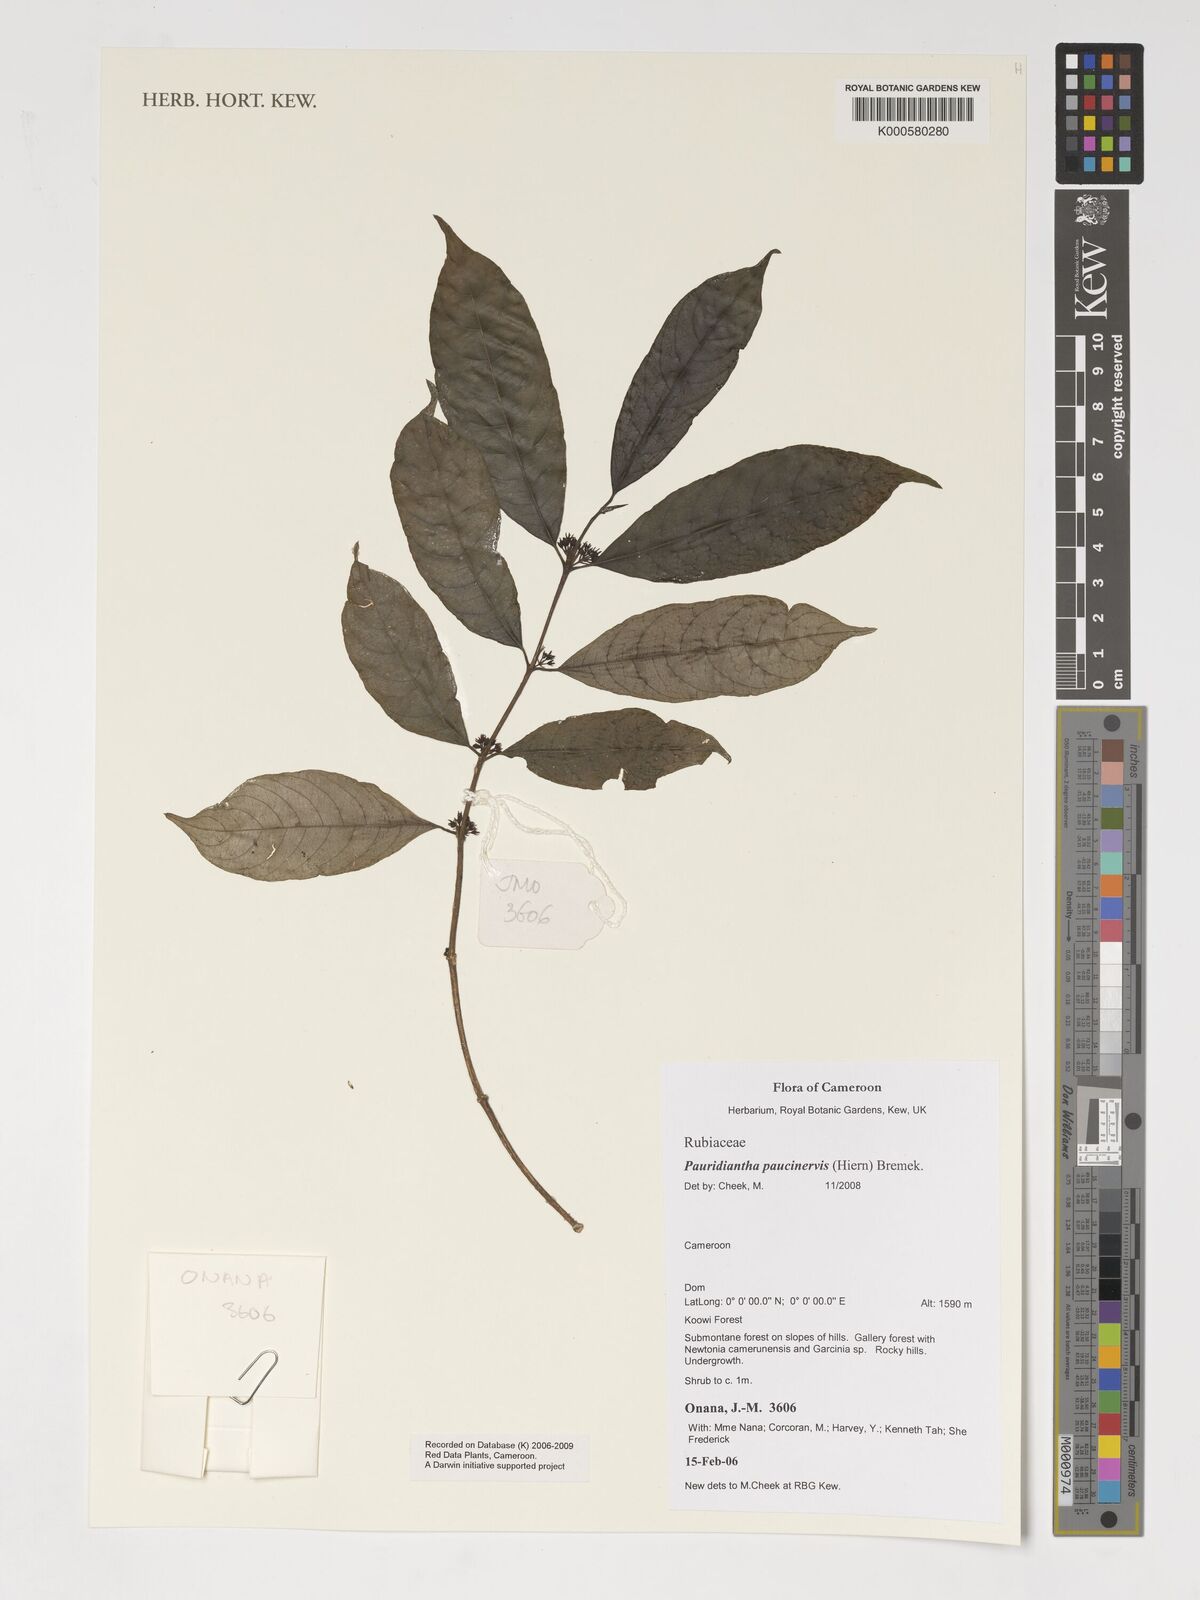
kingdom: Plantae
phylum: Tracheophyta
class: Magnoliopsida
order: Gentianales
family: Rubiaceae
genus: Pauridiantha
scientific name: Pauridiantha paucinervis
